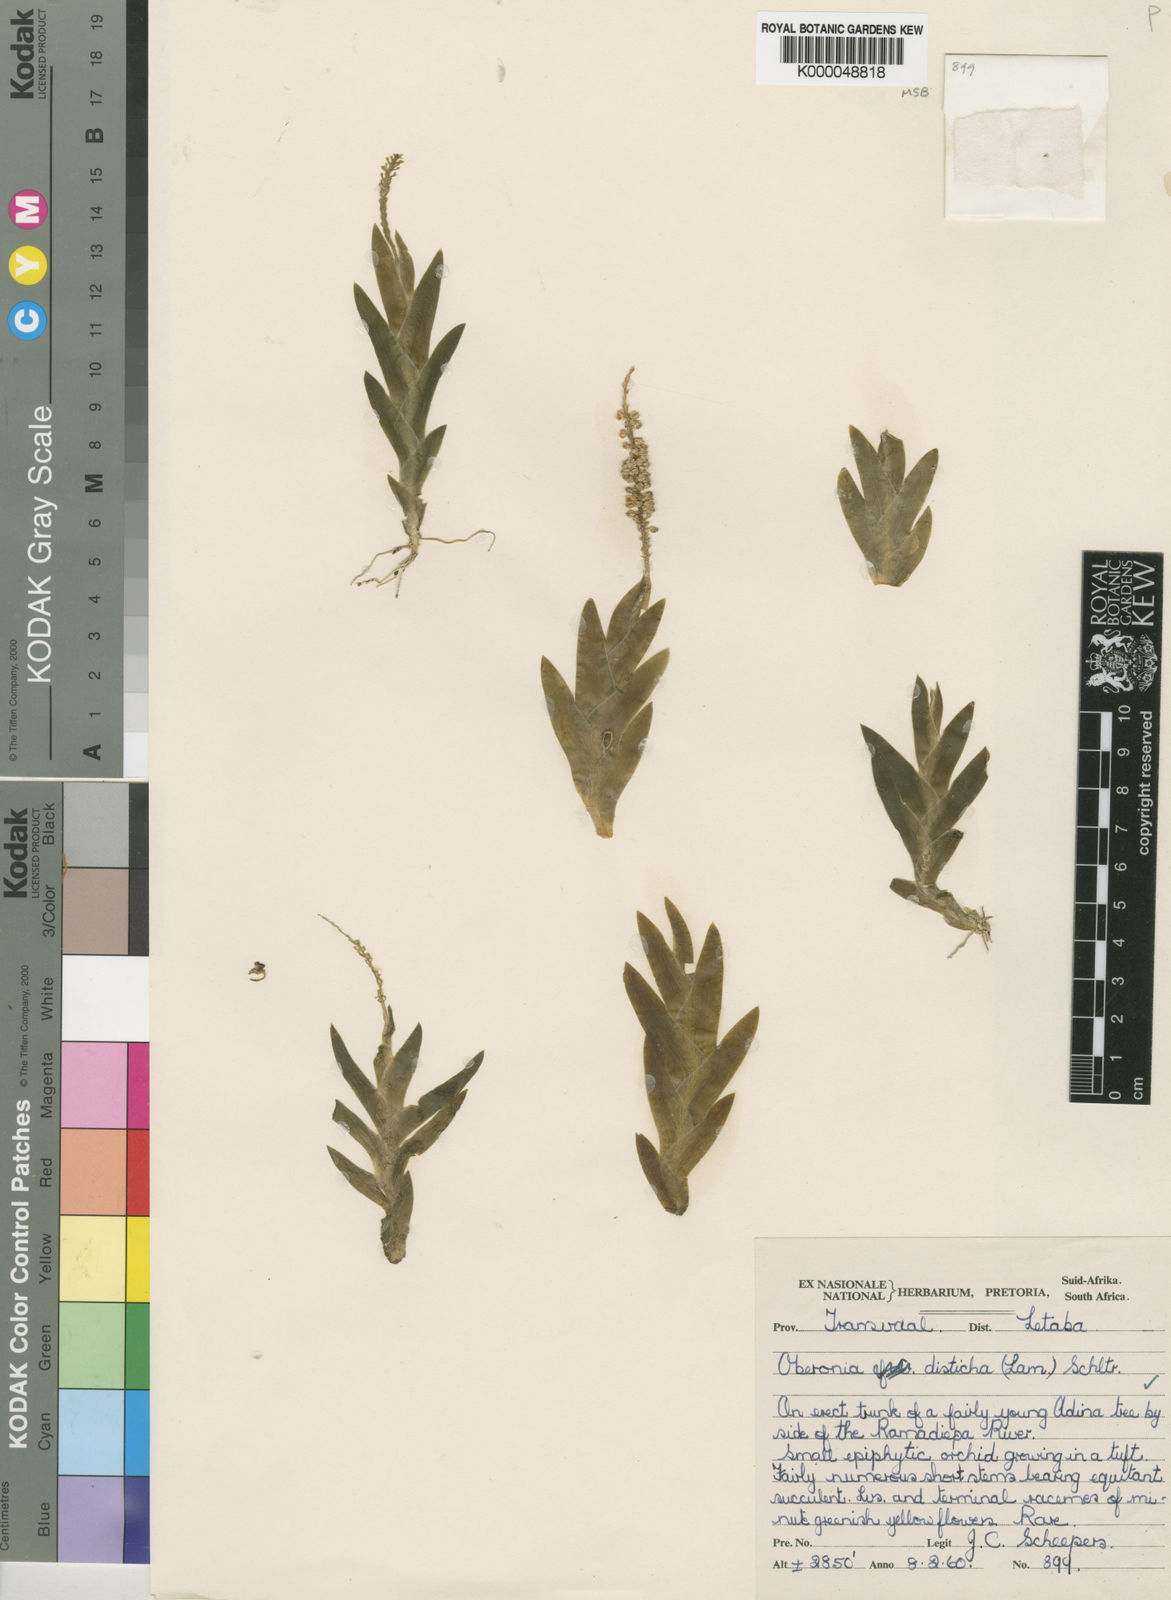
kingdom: Plantae
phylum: Tracheophyta
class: Liliopsida
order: Asparagales
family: Orchidaceae
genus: Oberonia
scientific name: Oberonia disticha
